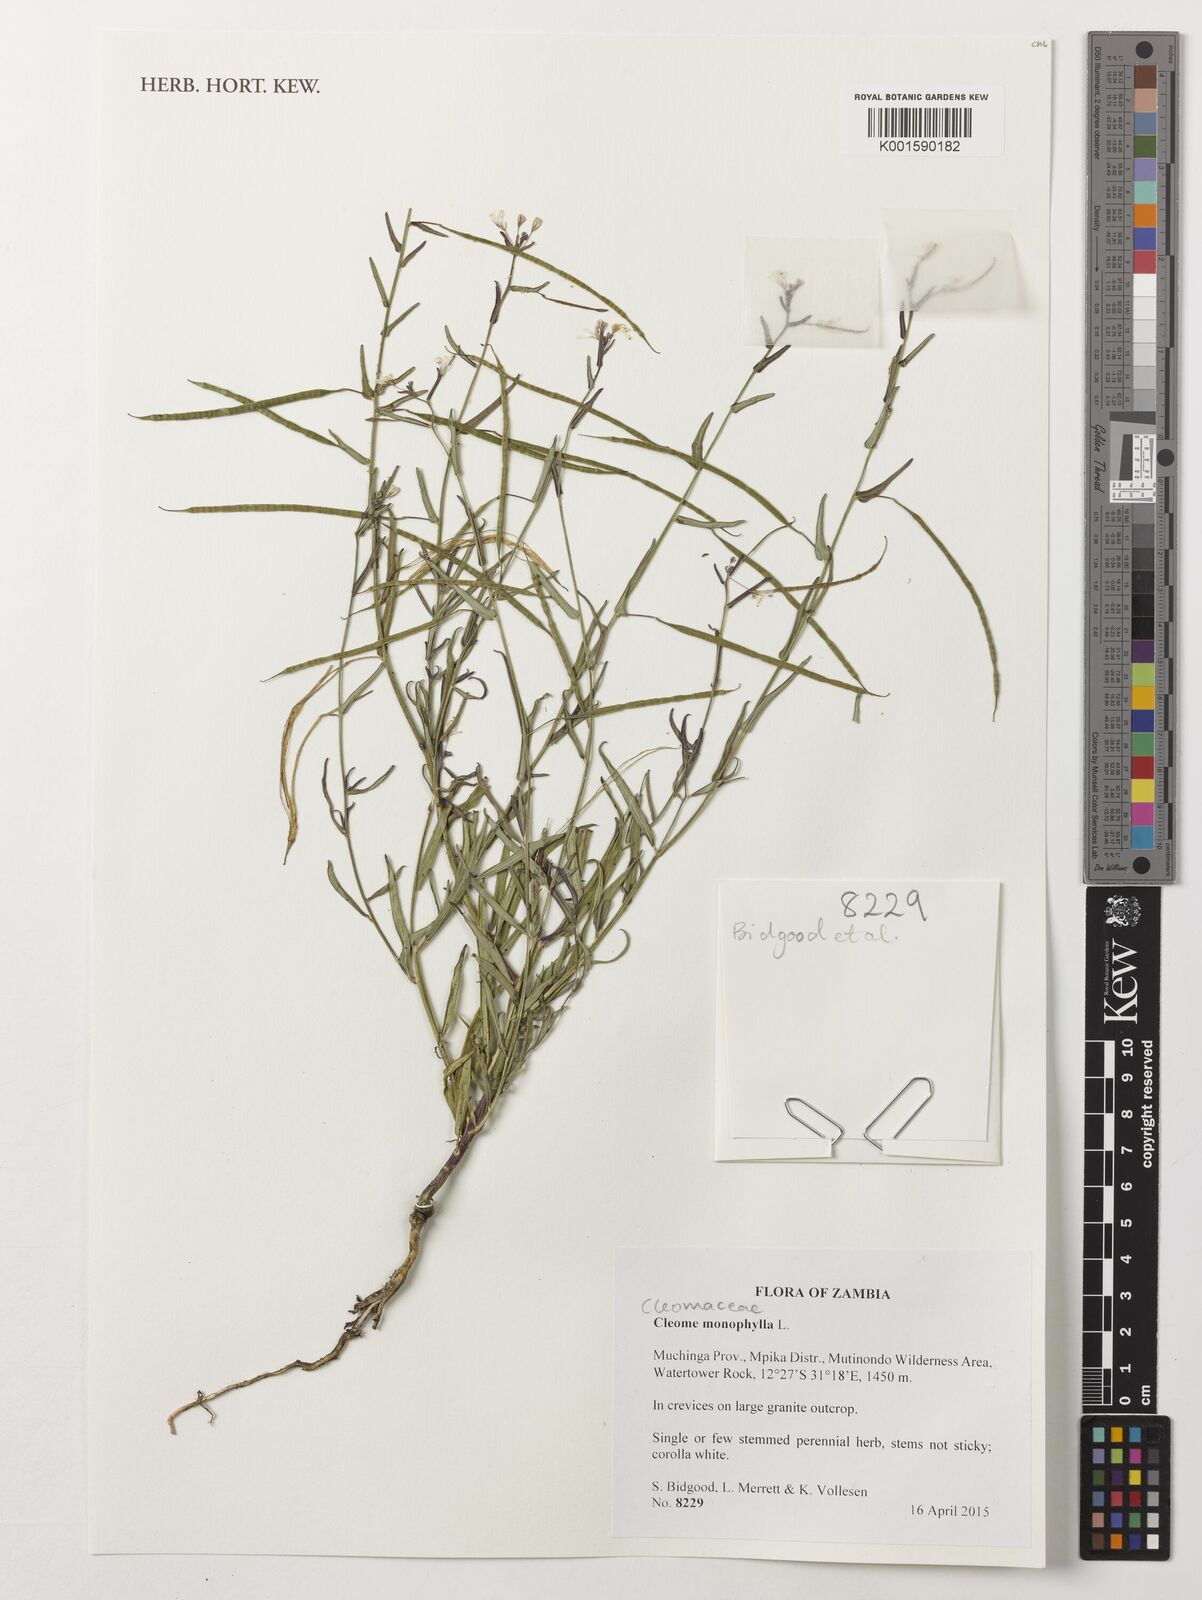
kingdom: Plantae
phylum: Tracheophyta
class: Magnoliopsida
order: Brassicales
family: Cleomaceae
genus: Sieruela
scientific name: Sieruela monophylla
